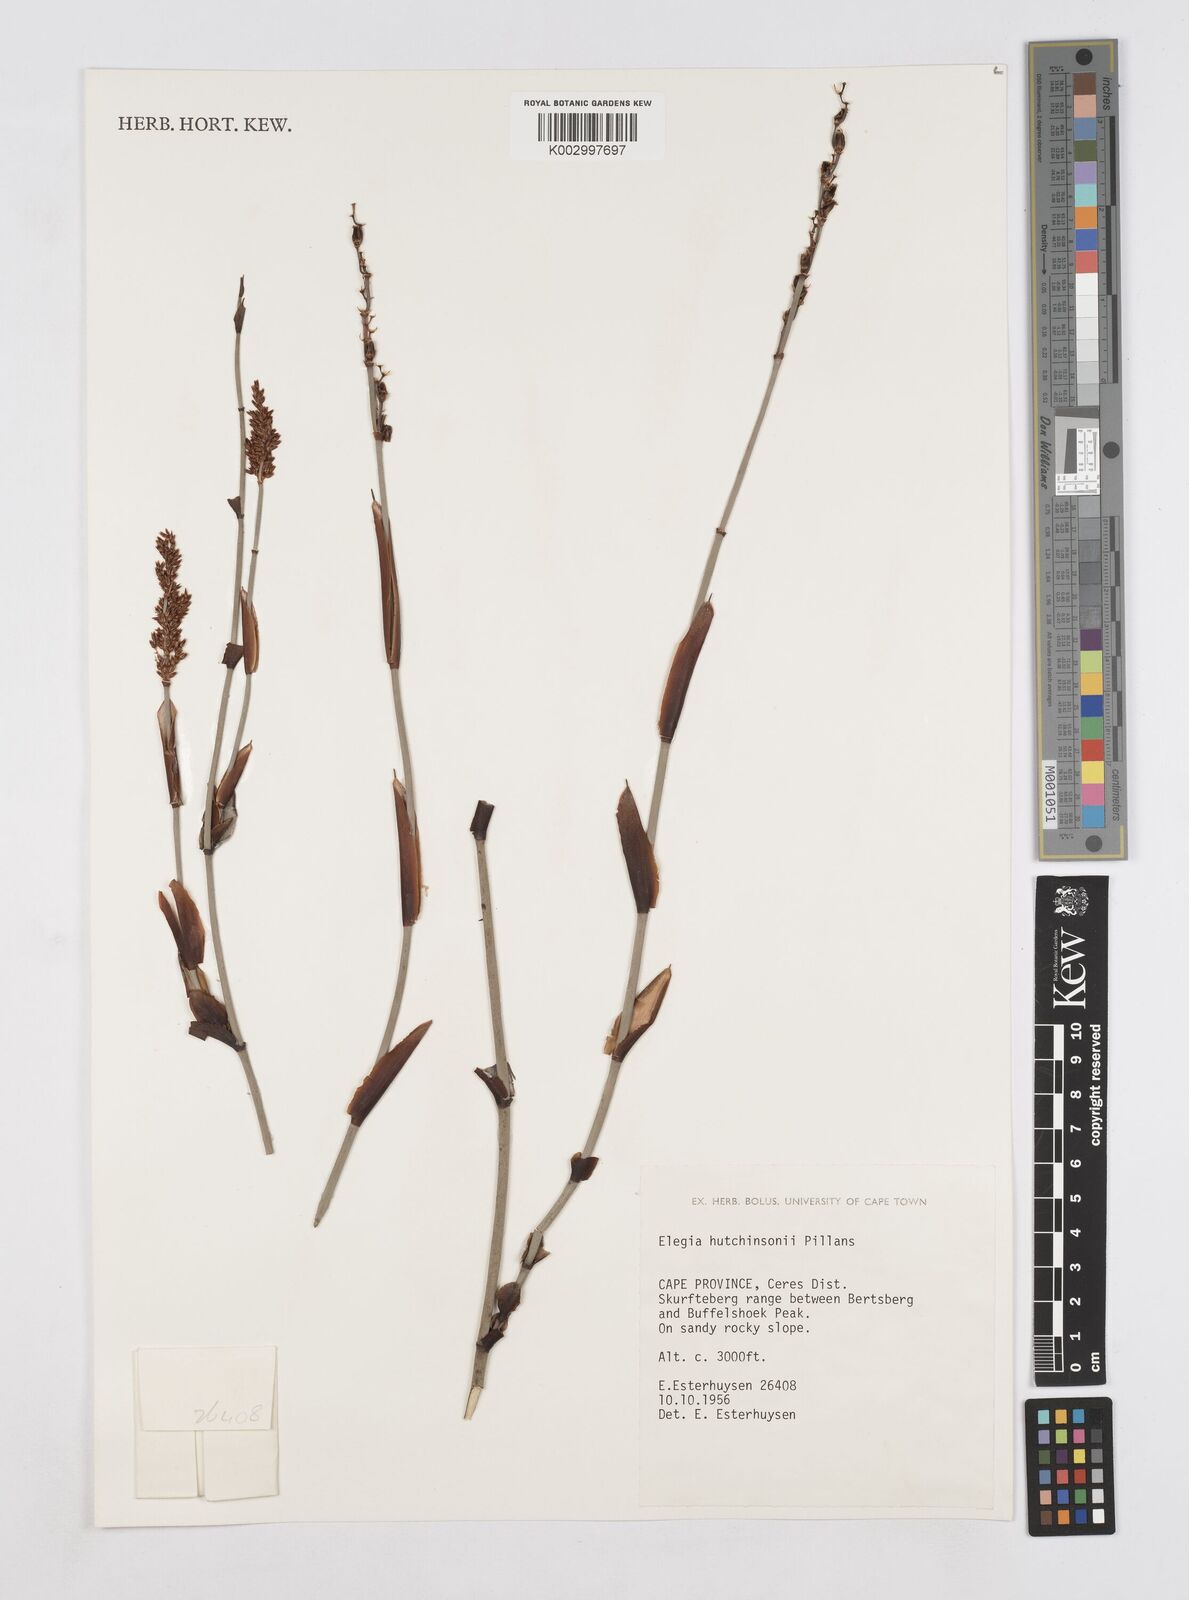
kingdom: Plantae
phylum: Tracheophyta
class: Liliopsida
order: Poales
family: Restionaceae
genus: Elegia
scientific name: Elegia hutchinsonii
